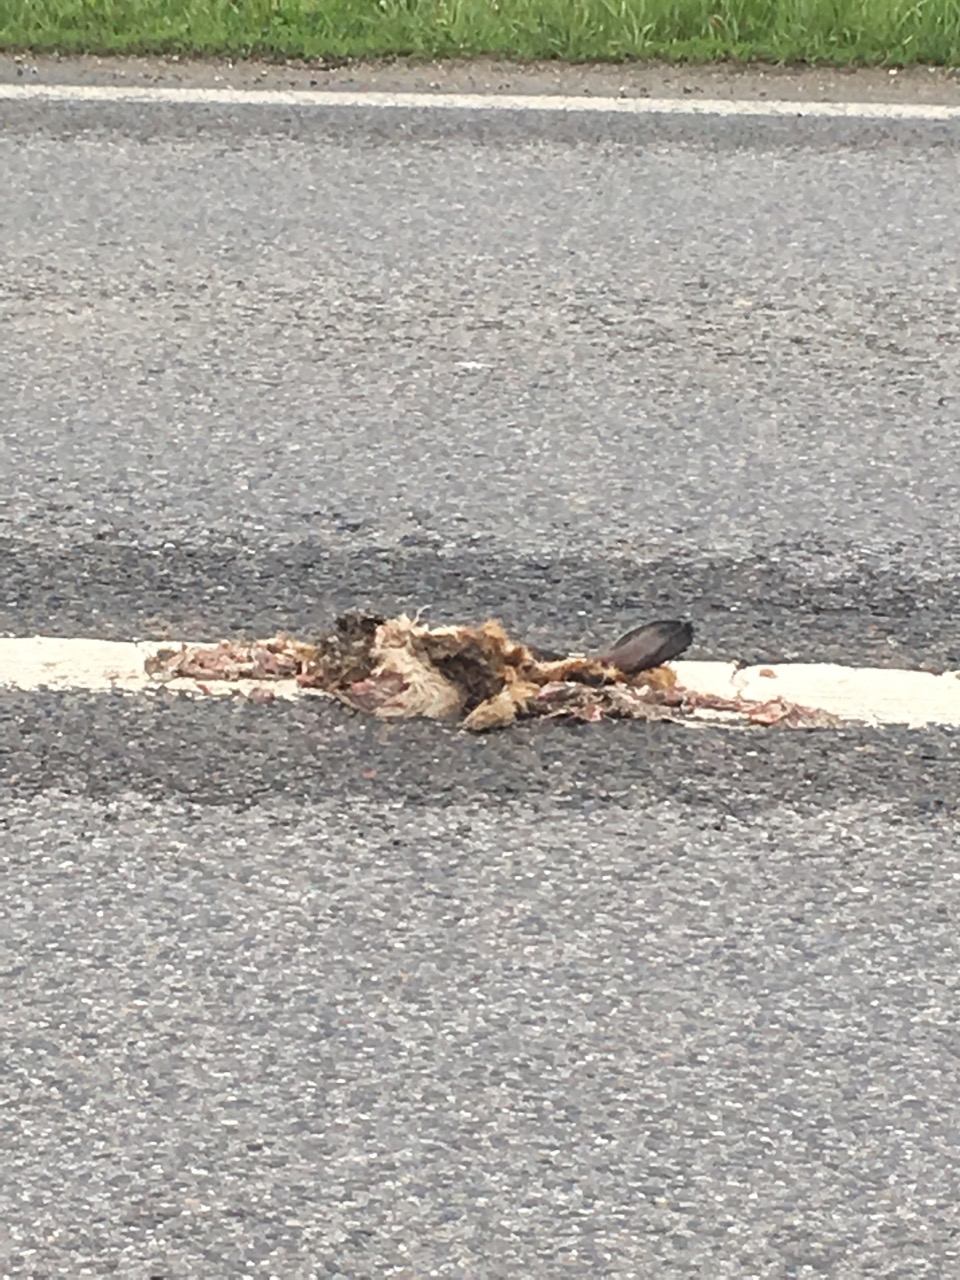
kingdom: Animalia
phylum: Chordata
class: Mammalia
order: Lagomorpha
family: Leporidae
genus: Lepus
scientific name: Lepus europaeus
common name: European hare
